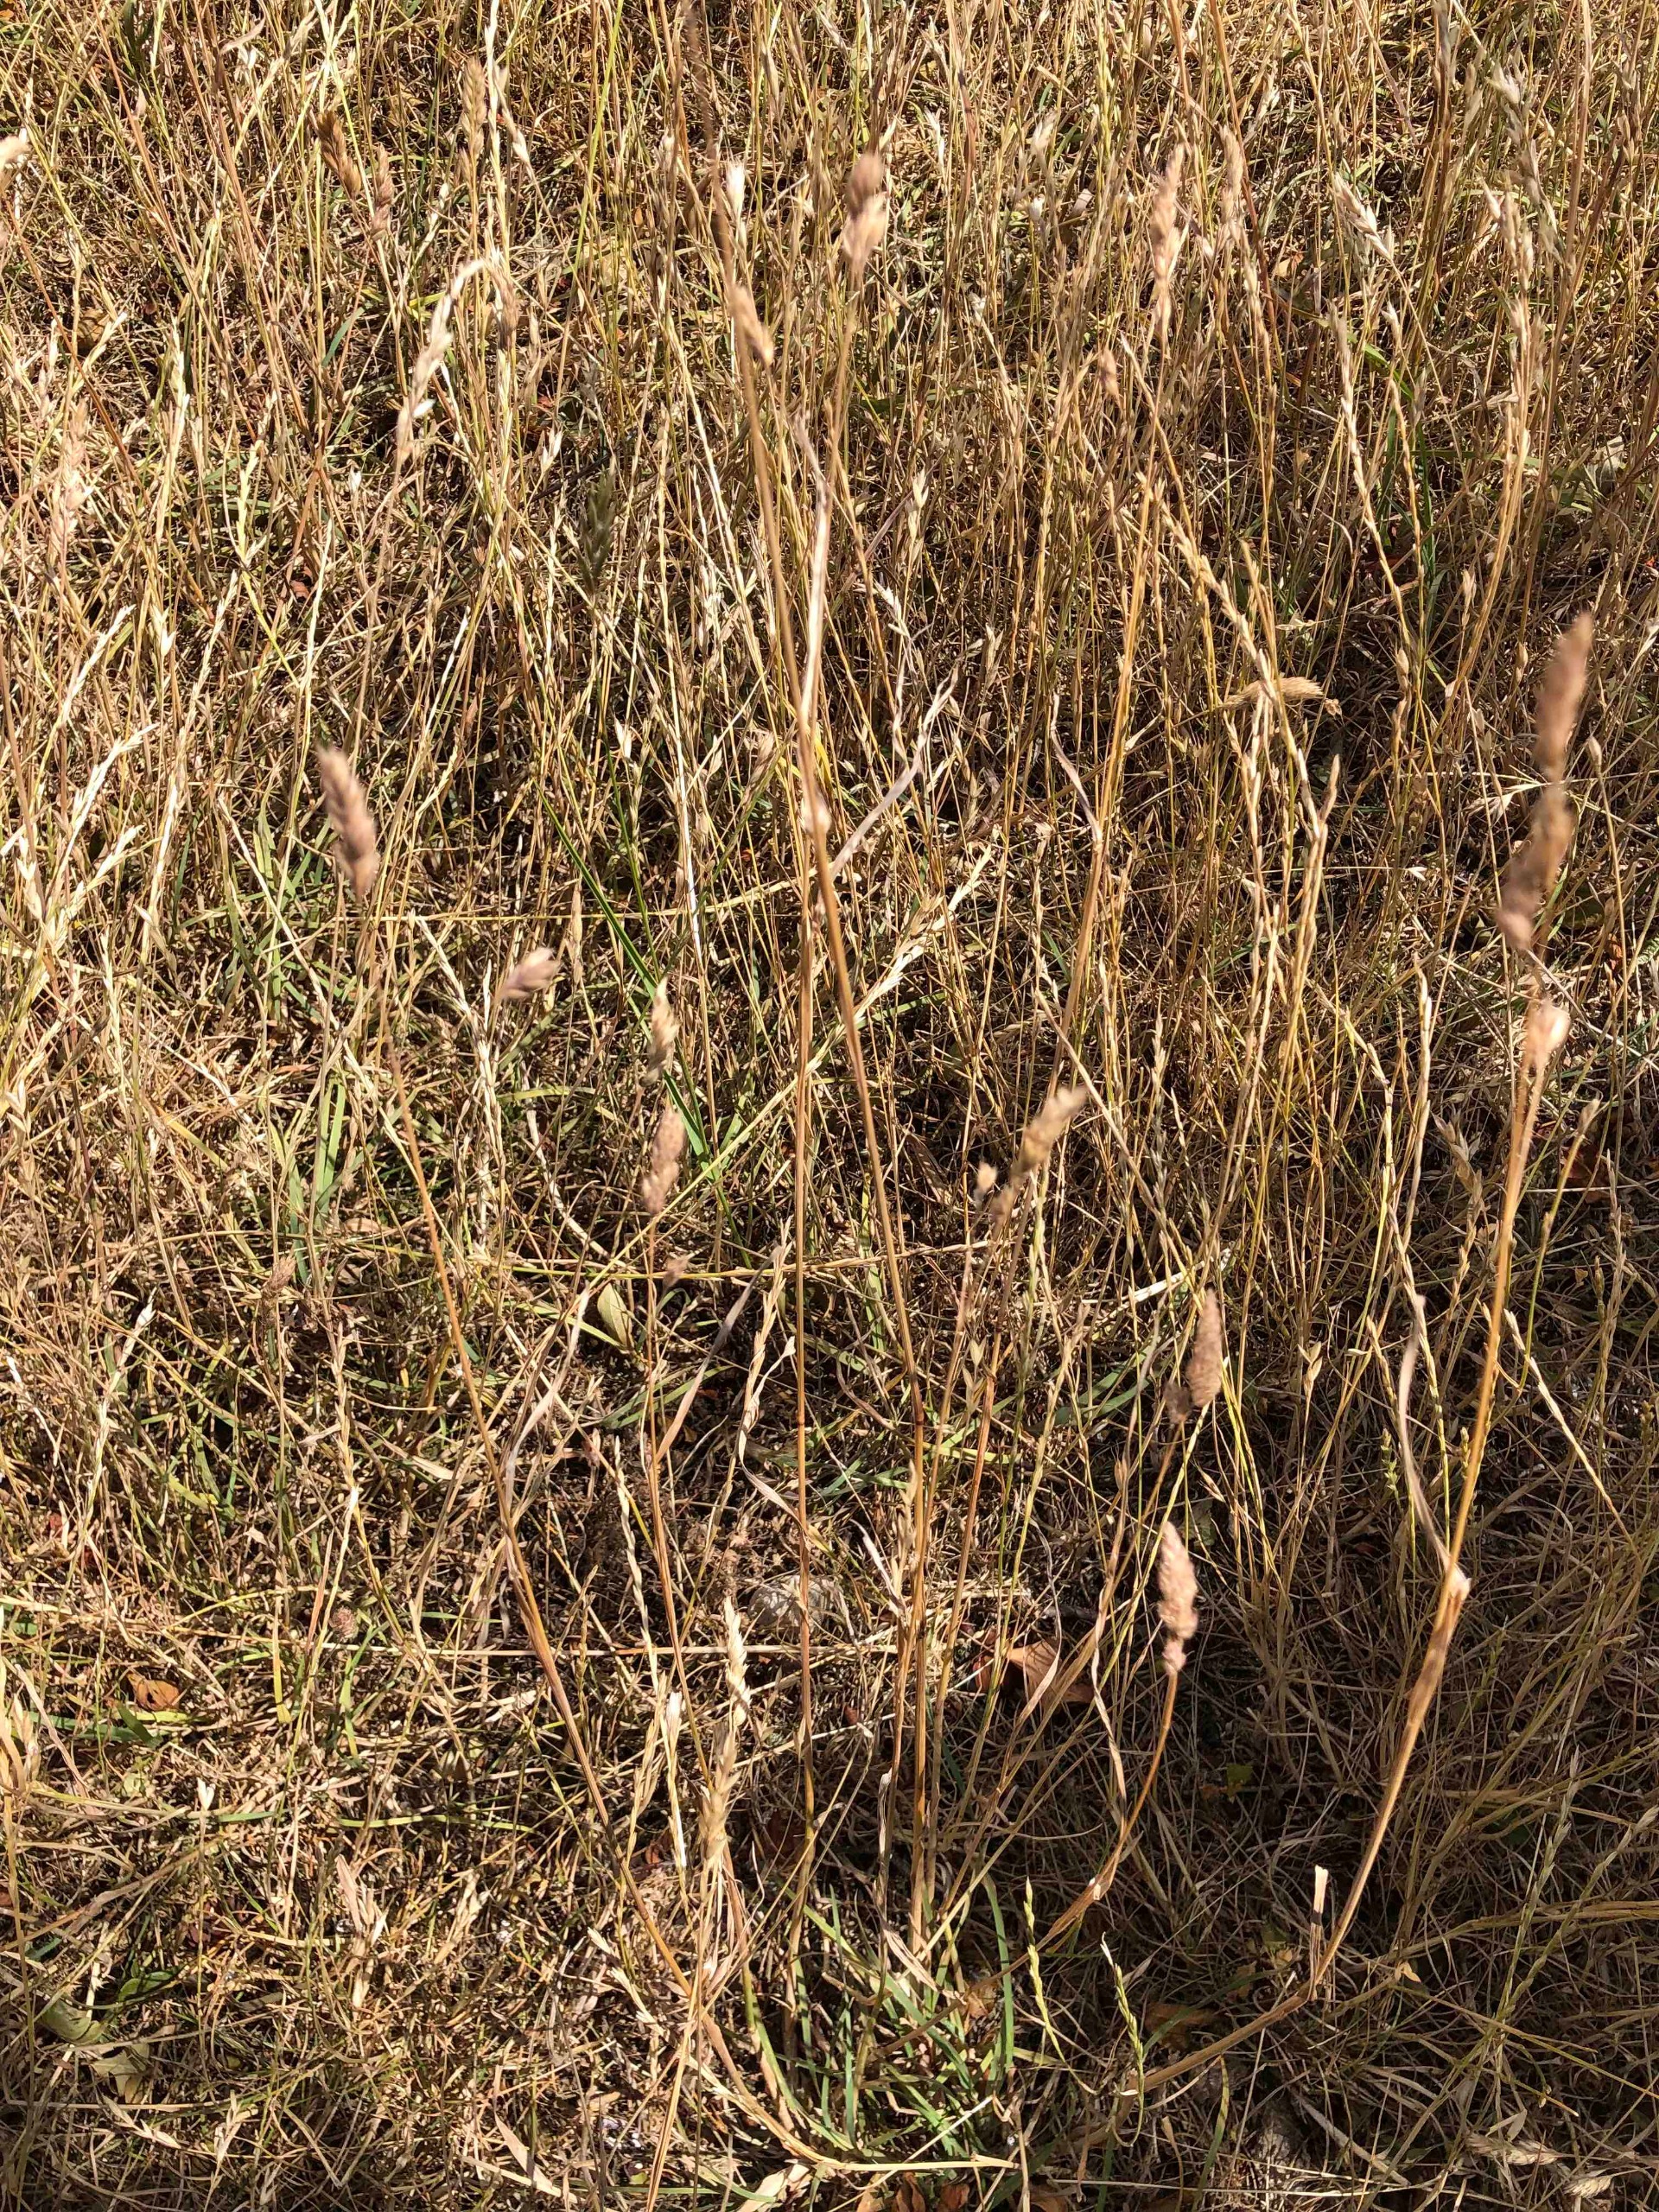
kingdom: Plantae
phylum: Tracheophyta
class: Liliopsida
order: Poales
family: Poaceae
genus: Anthoxanthum
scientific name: Anthoxanthum odoratum
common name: Vellugtende gulaks
